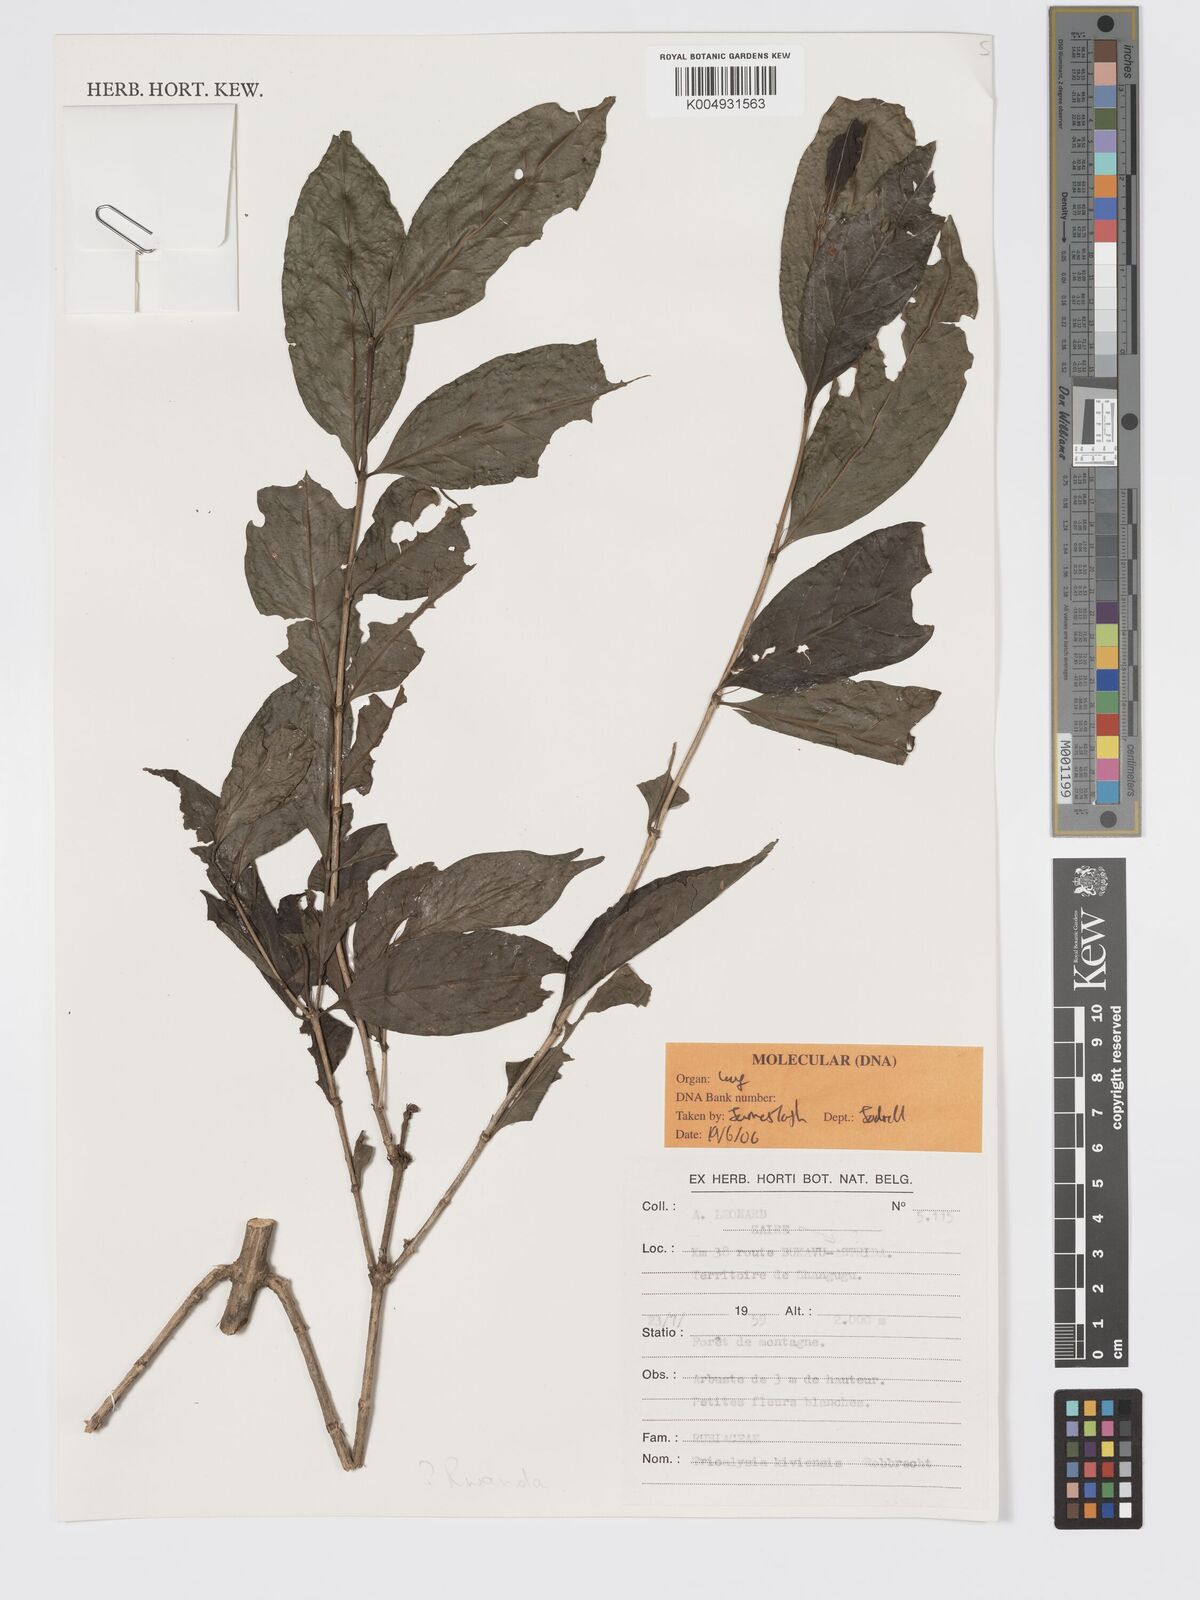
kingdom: Plantae
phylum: Tracheophyta
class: Magnoliopsida
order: Gentianales
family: Rubiaceae
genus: Tricalysia
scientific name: Tricalysia kivuensis
